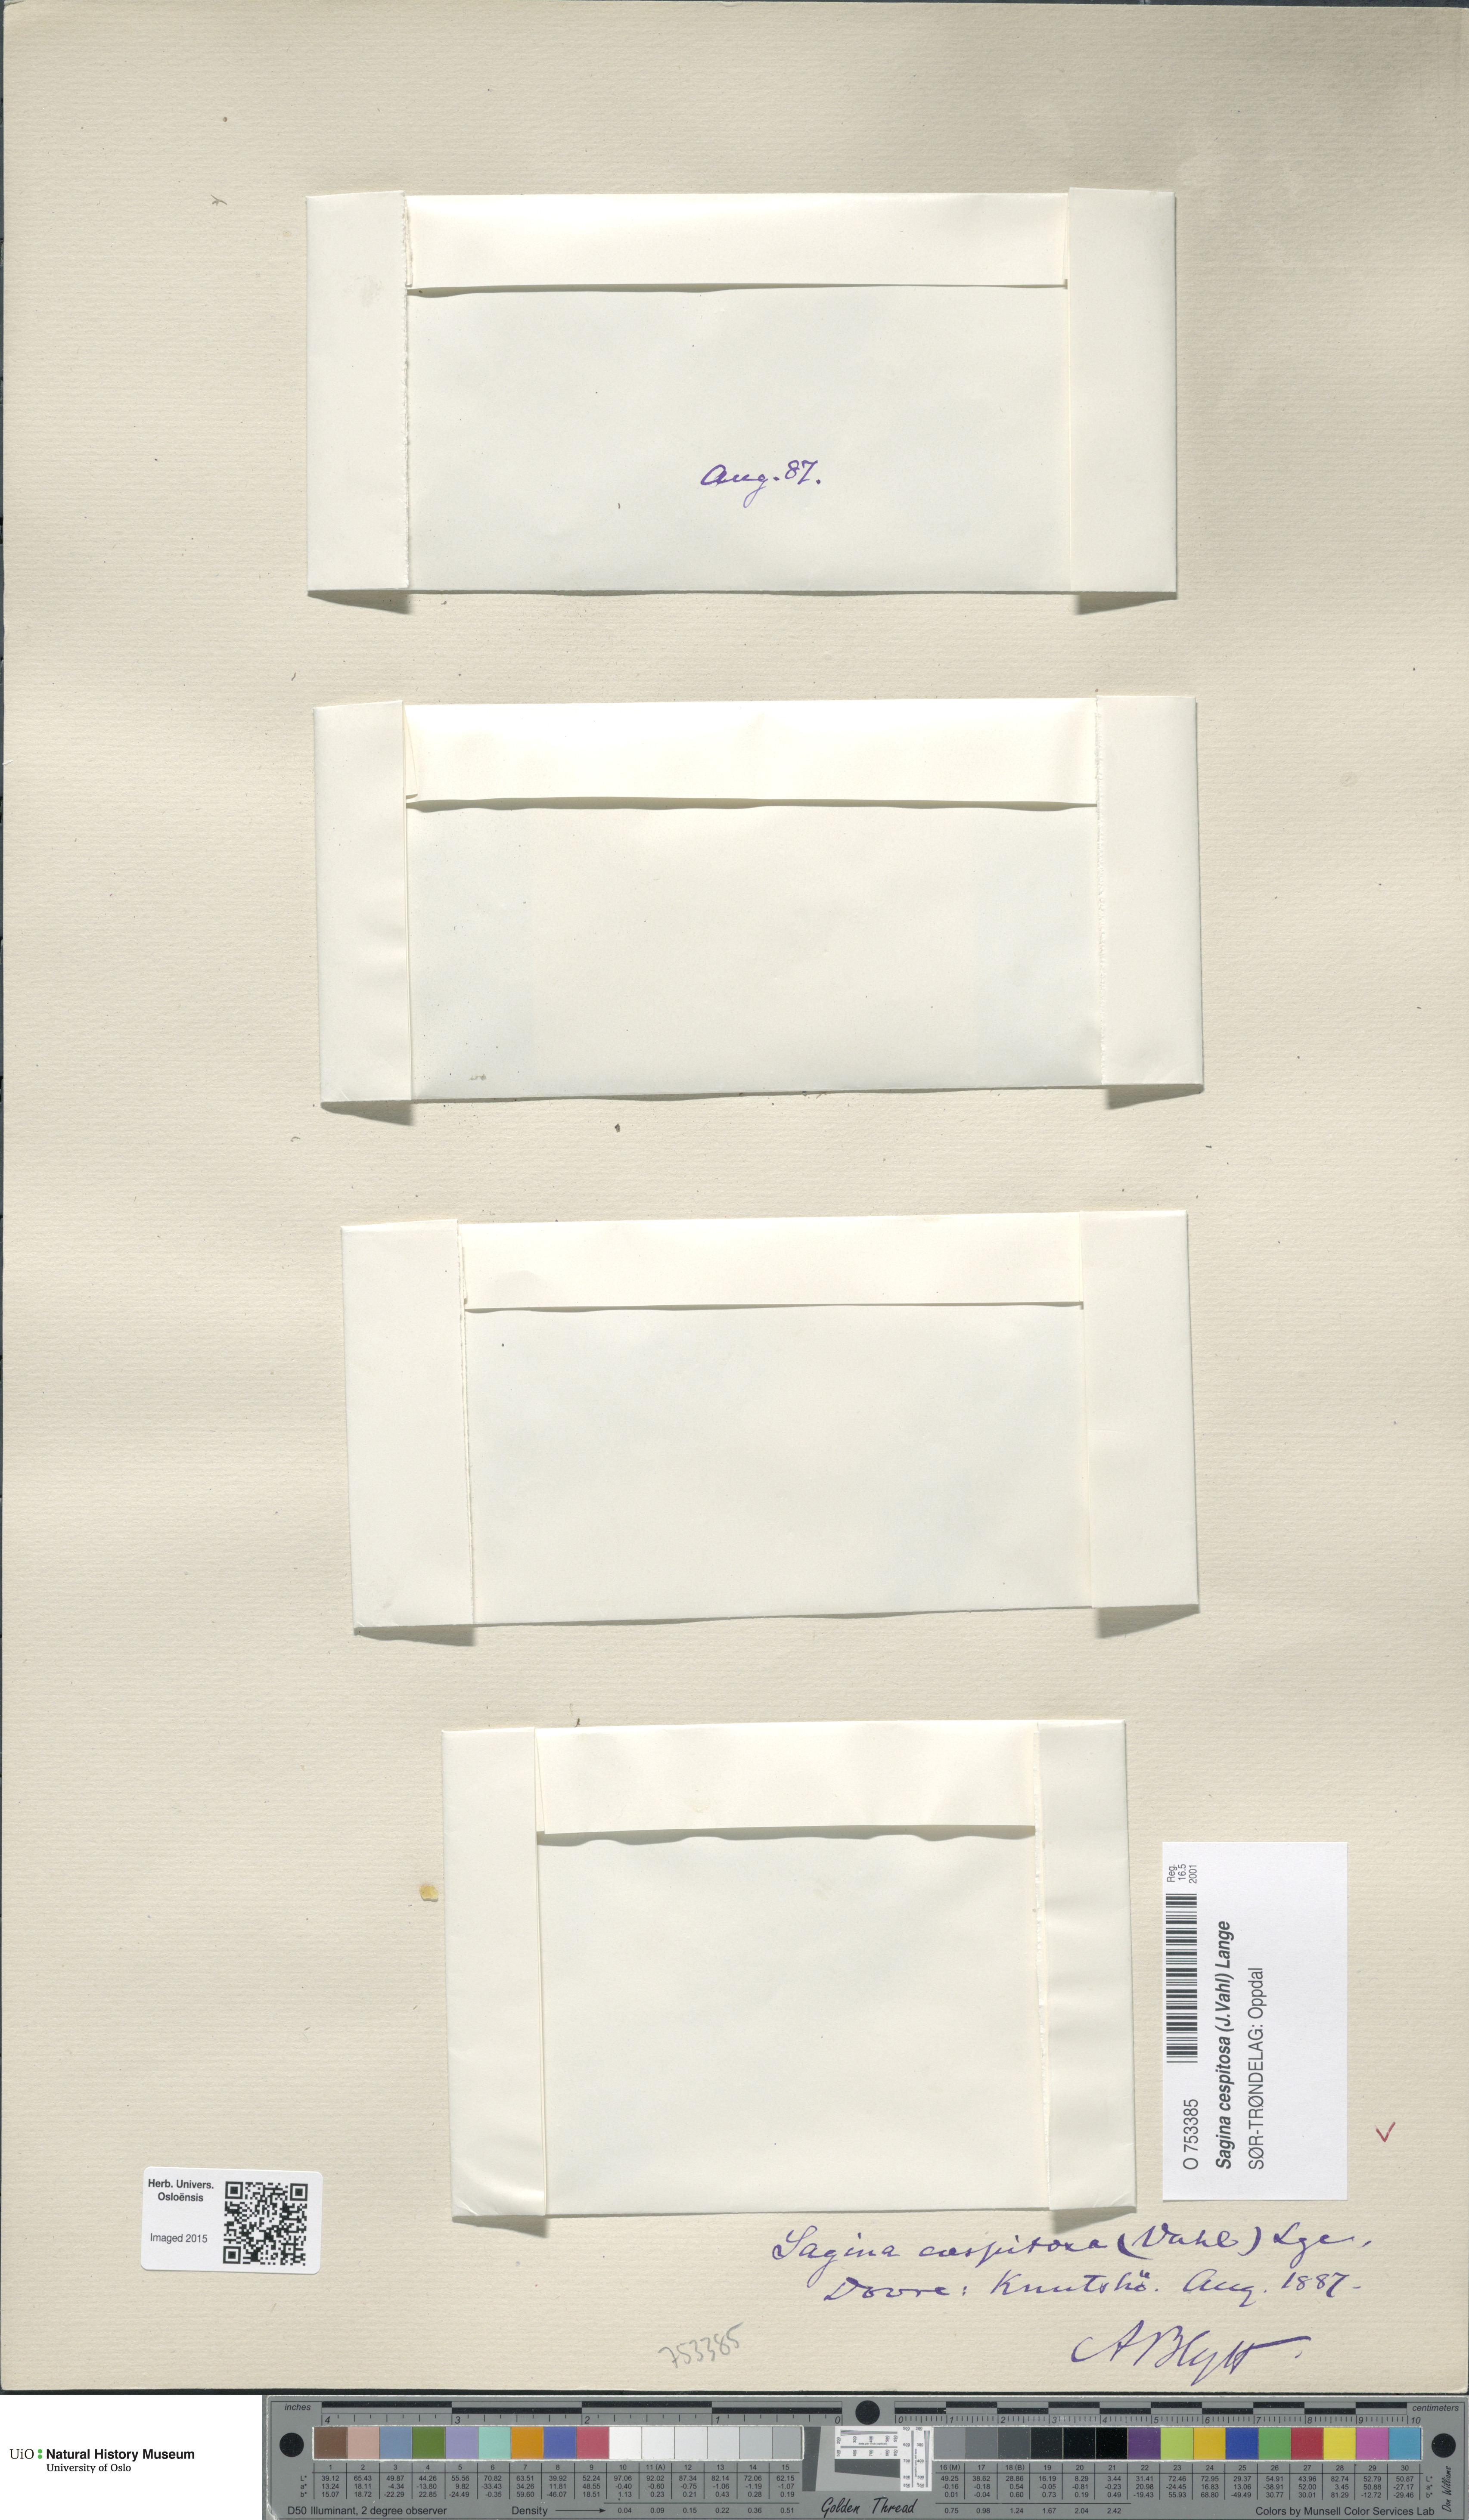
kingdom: Plantae
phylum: Tracheophyta
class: Magnoliopsida
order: Caryophyllales
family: Caryophyllaceae
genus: Sagina
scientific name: Sagina caespitosa
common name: Tufted pearlwort
